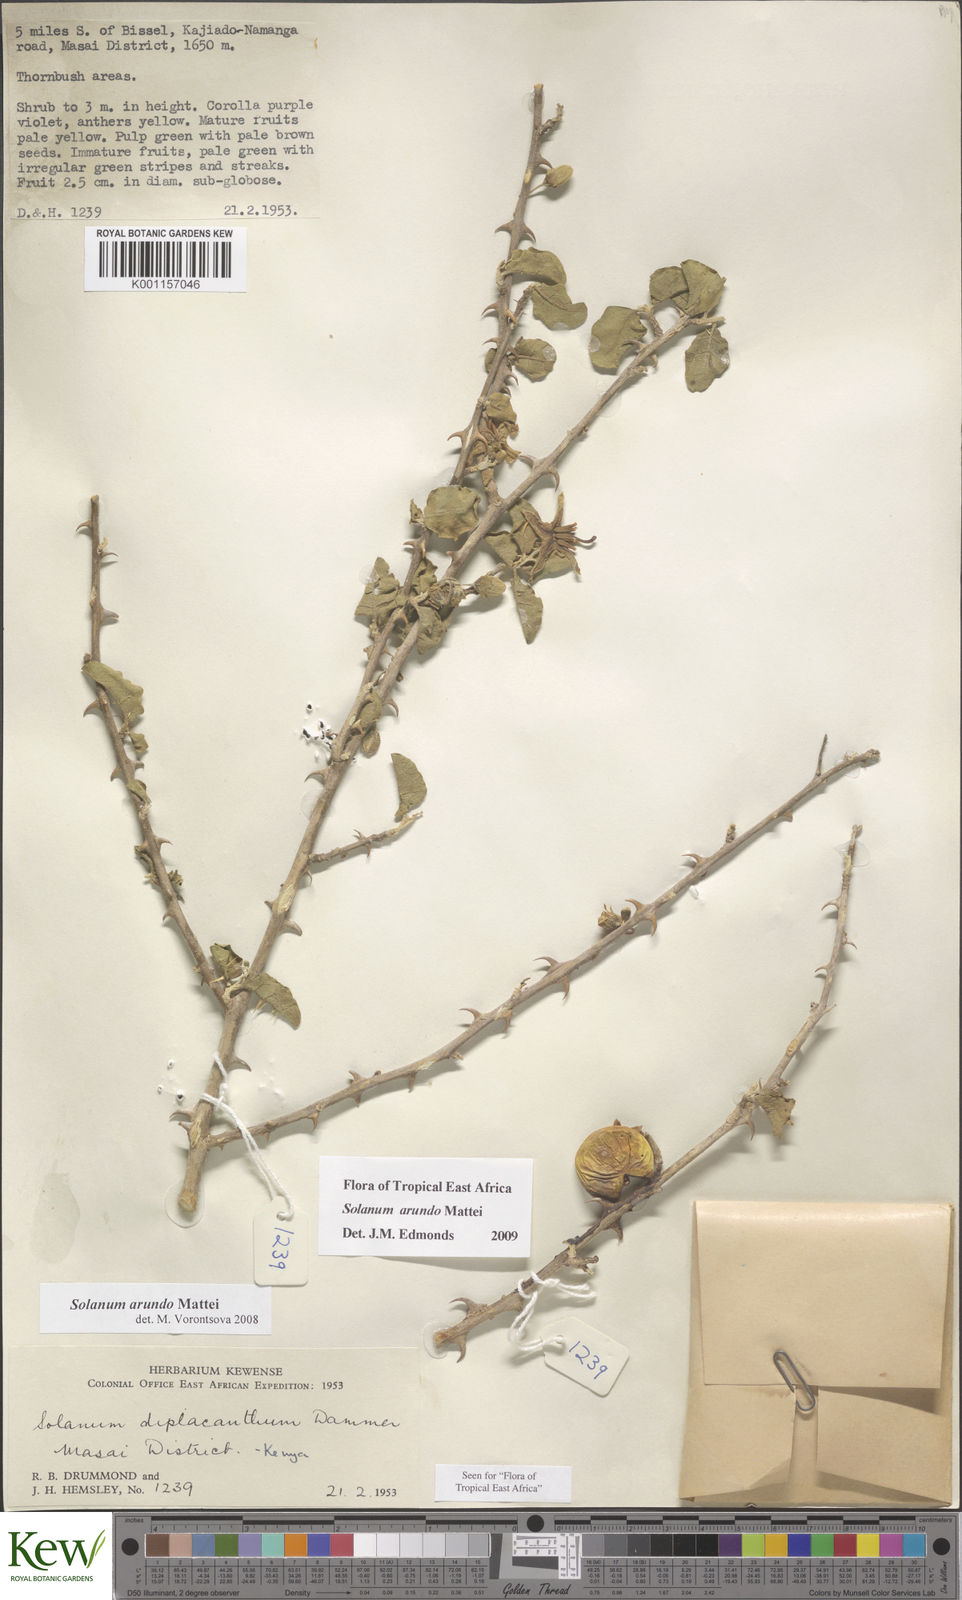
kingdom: Plantae
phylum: Tracheophyta
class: Magnoliopsida
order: Solanales
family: Solanaceae
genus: Solanum
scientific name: Solanum arundo
